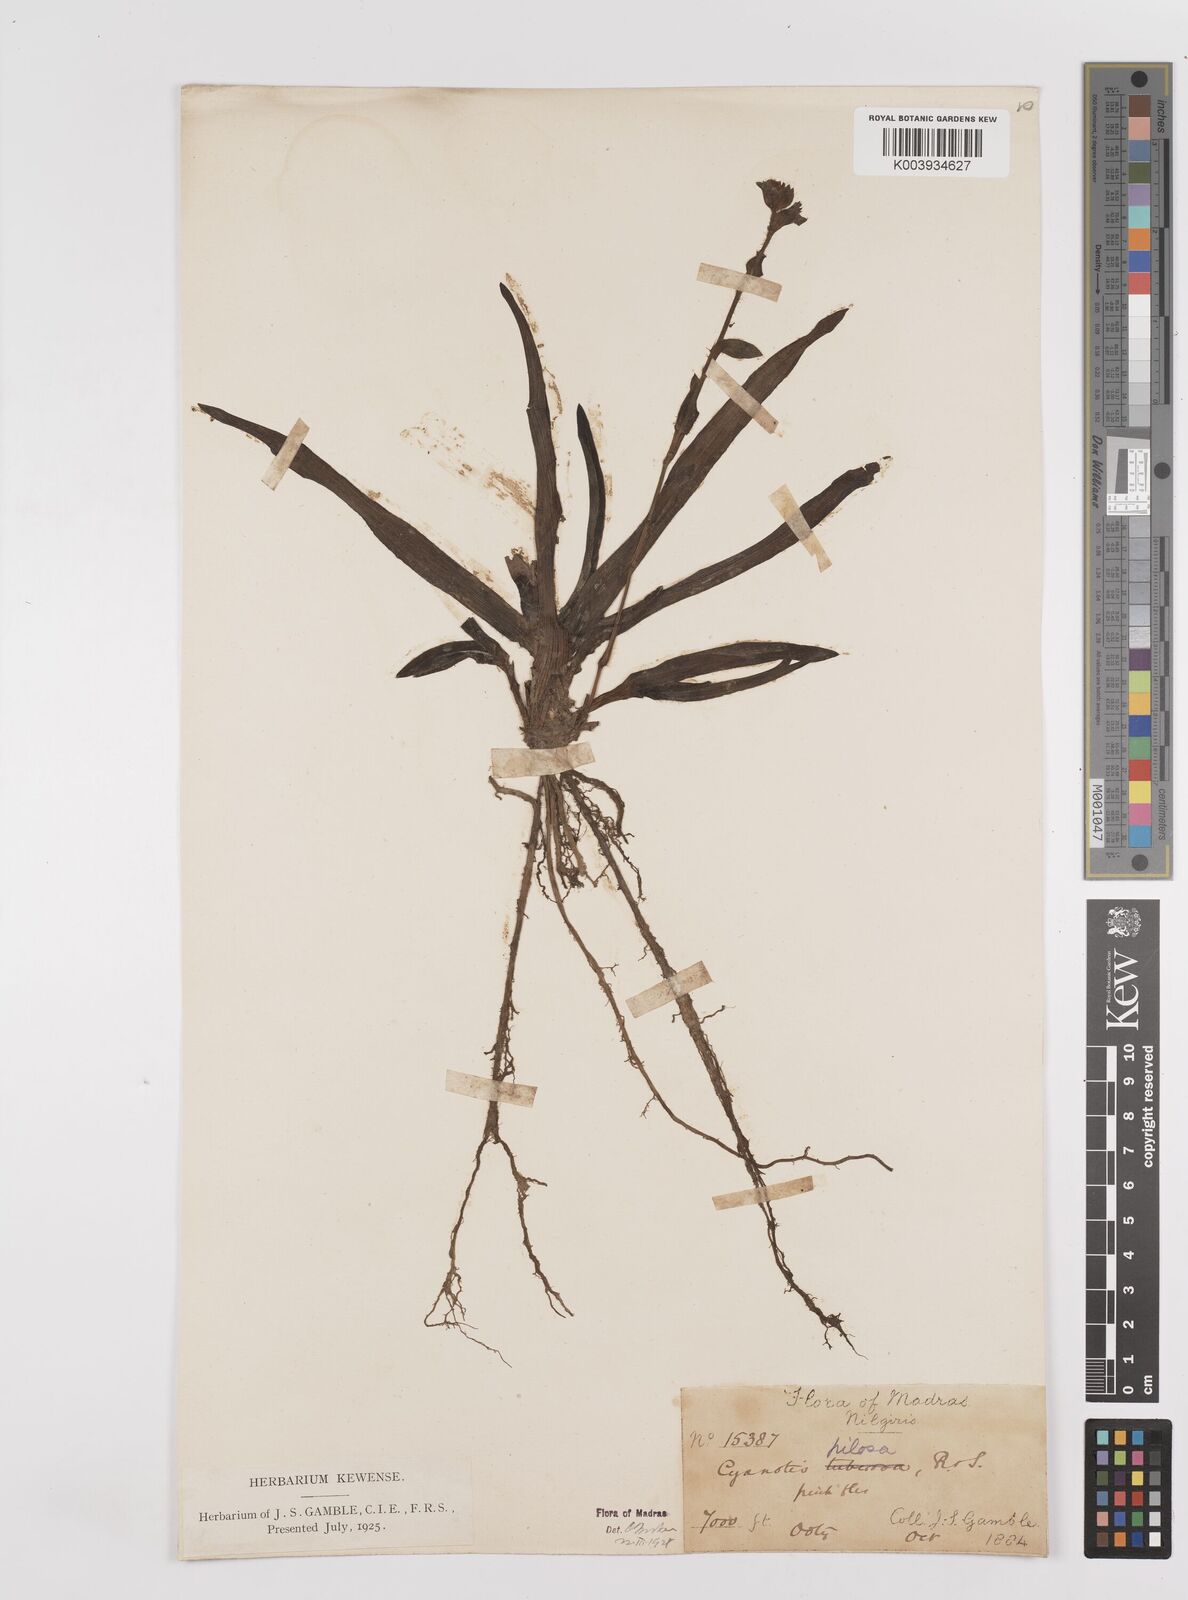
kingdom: Plantae
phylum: Tracheophyta
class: Liliopsida
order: Commelinales
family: Commelinaceae
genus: Cyanotis
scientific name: Cyanotis pilosa
